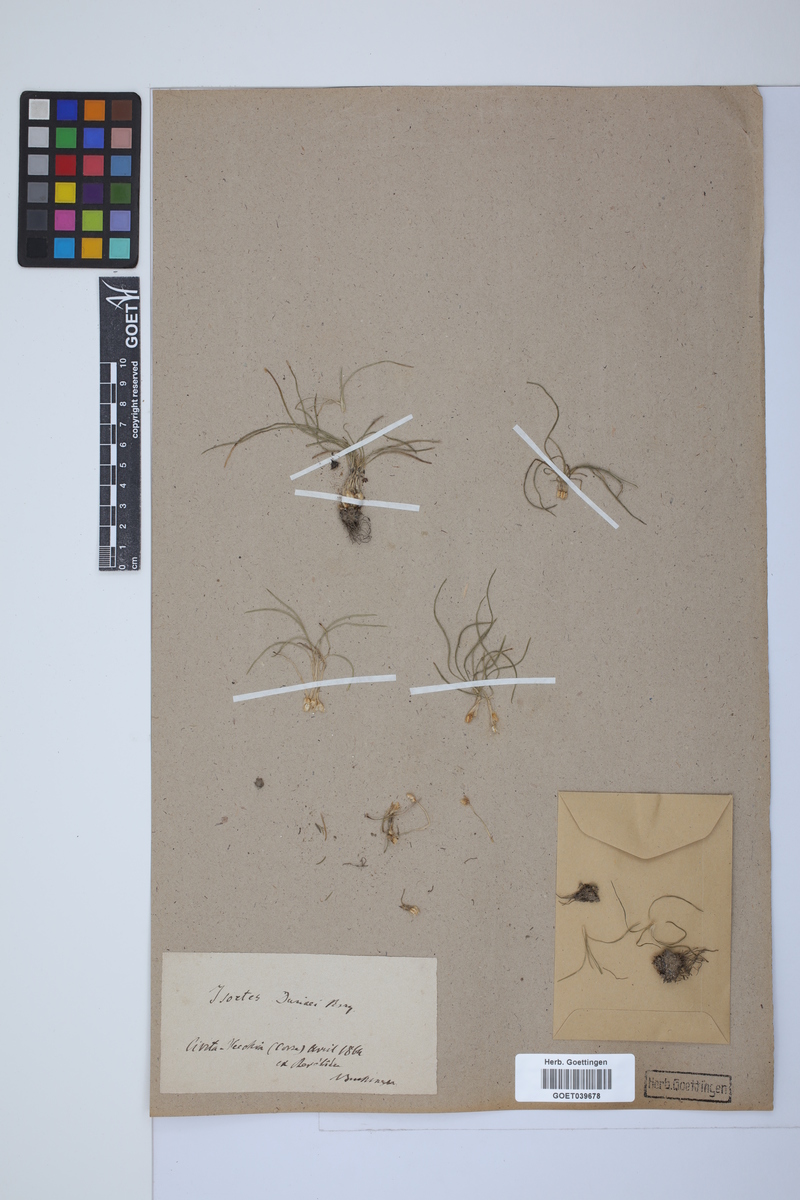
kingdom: Plantae
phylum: Tracheophyta
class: Lycopodiopsida
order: Isoetales
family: Isoetaceae
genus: Isoetes
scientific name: Isoetes duriei
